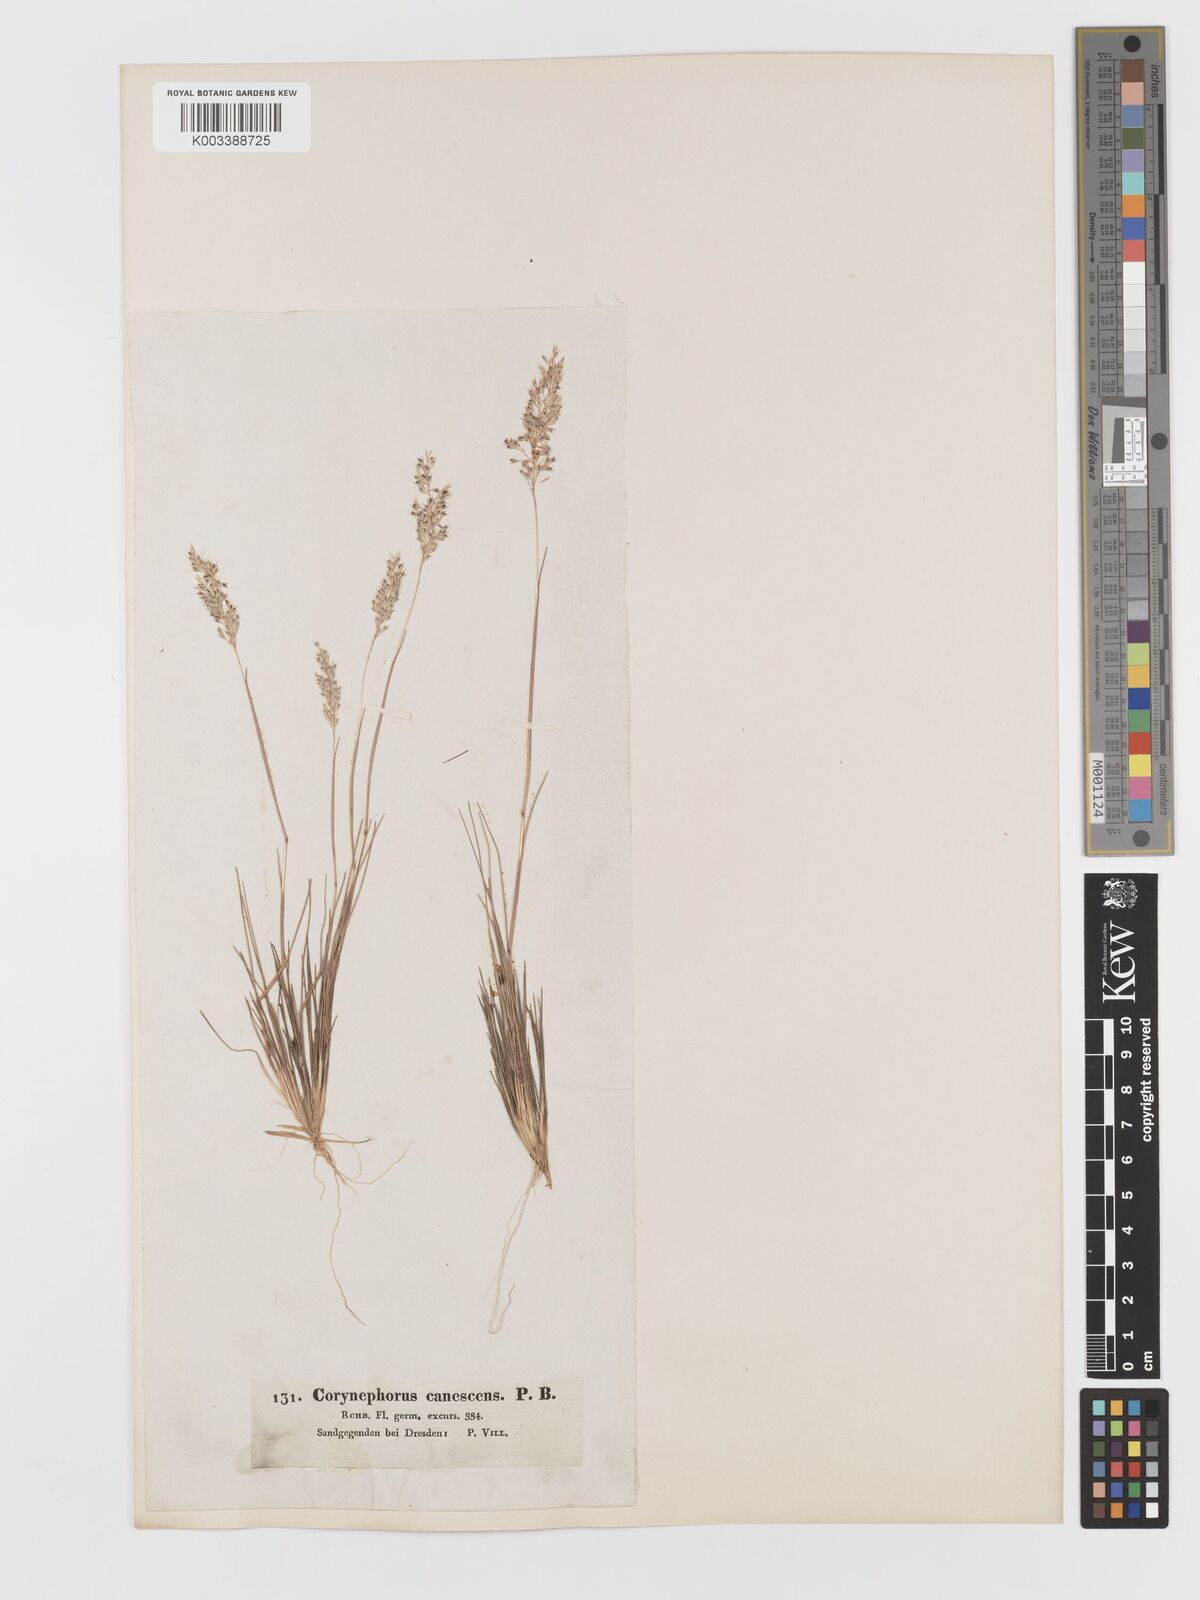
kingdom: Plantae
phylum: Tracheophyta
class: Liliopsida
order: Poales
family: Poaceae
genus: Corynephorus
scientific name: Corynephorus canescens
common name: Grey hair-grass
